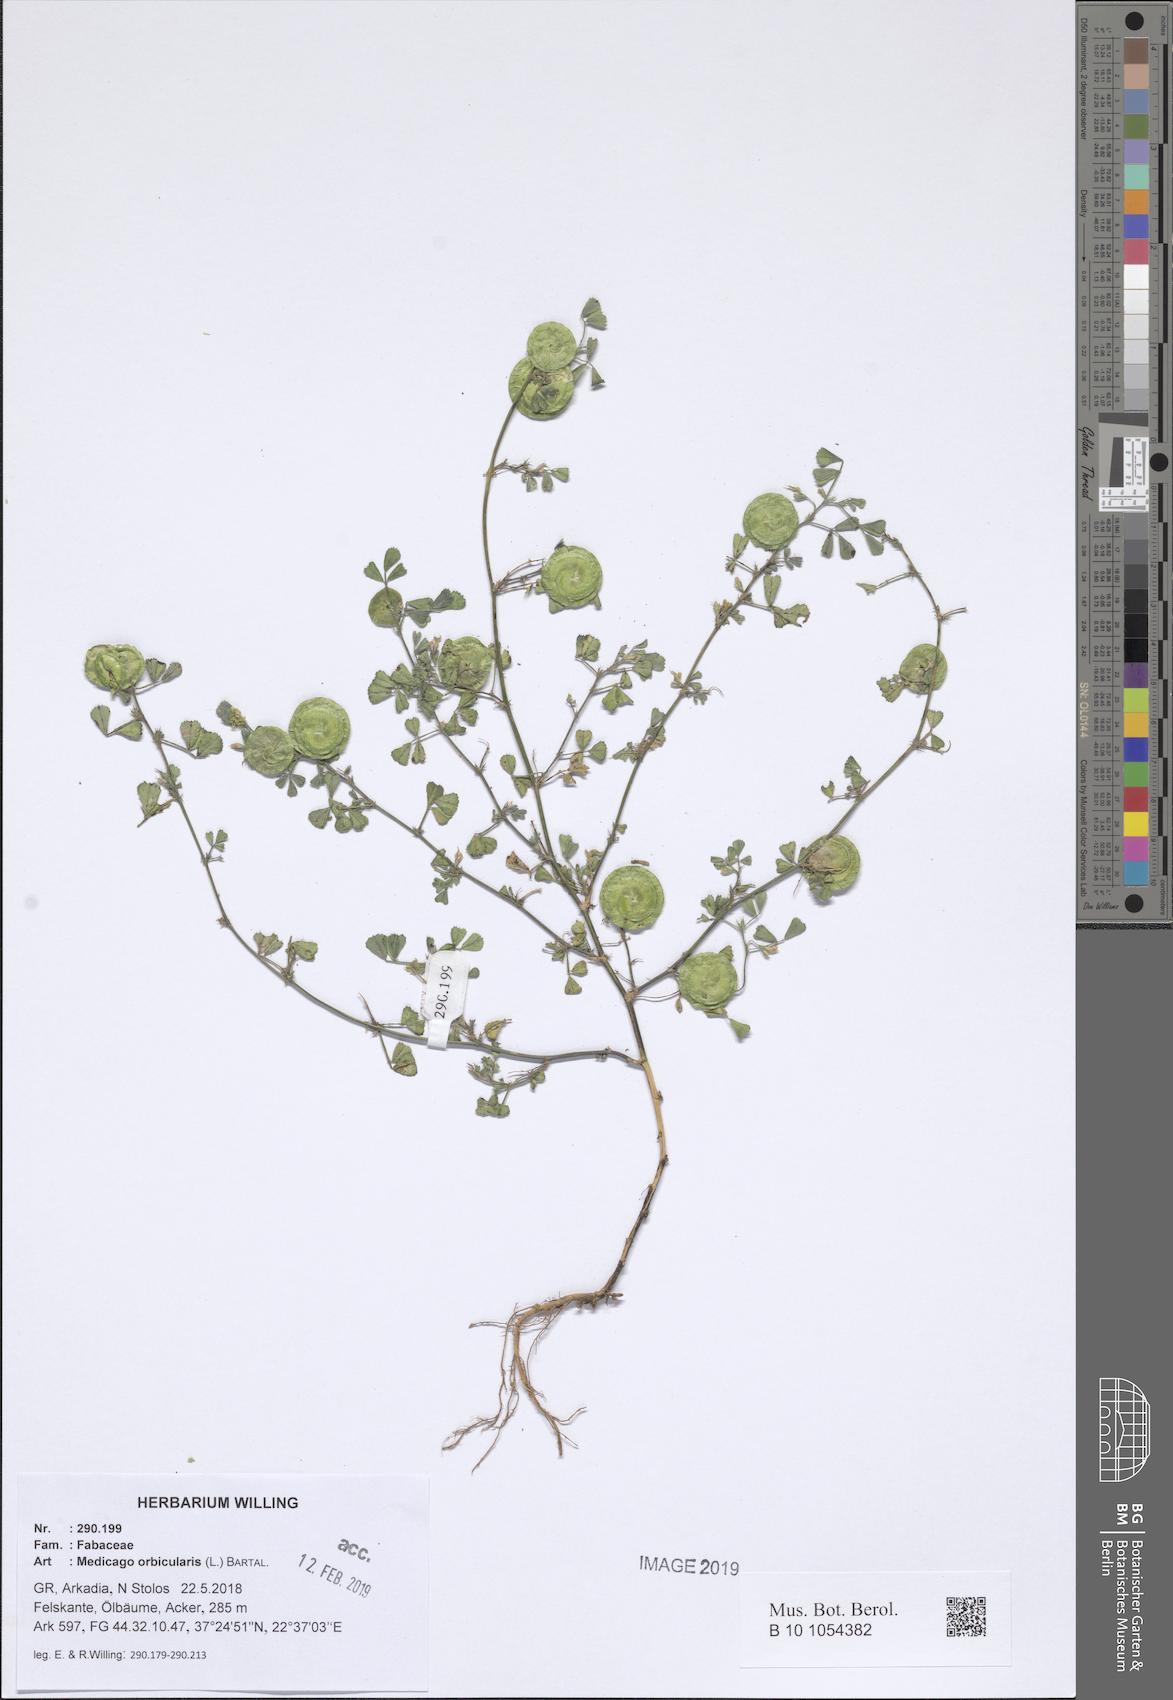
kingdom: Plantae
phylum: Tracheophyta
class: Magnoliopsida
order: Fabales
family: Fabaceae
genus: Medicago
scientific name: Medicago orbicularis
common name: Button medick
